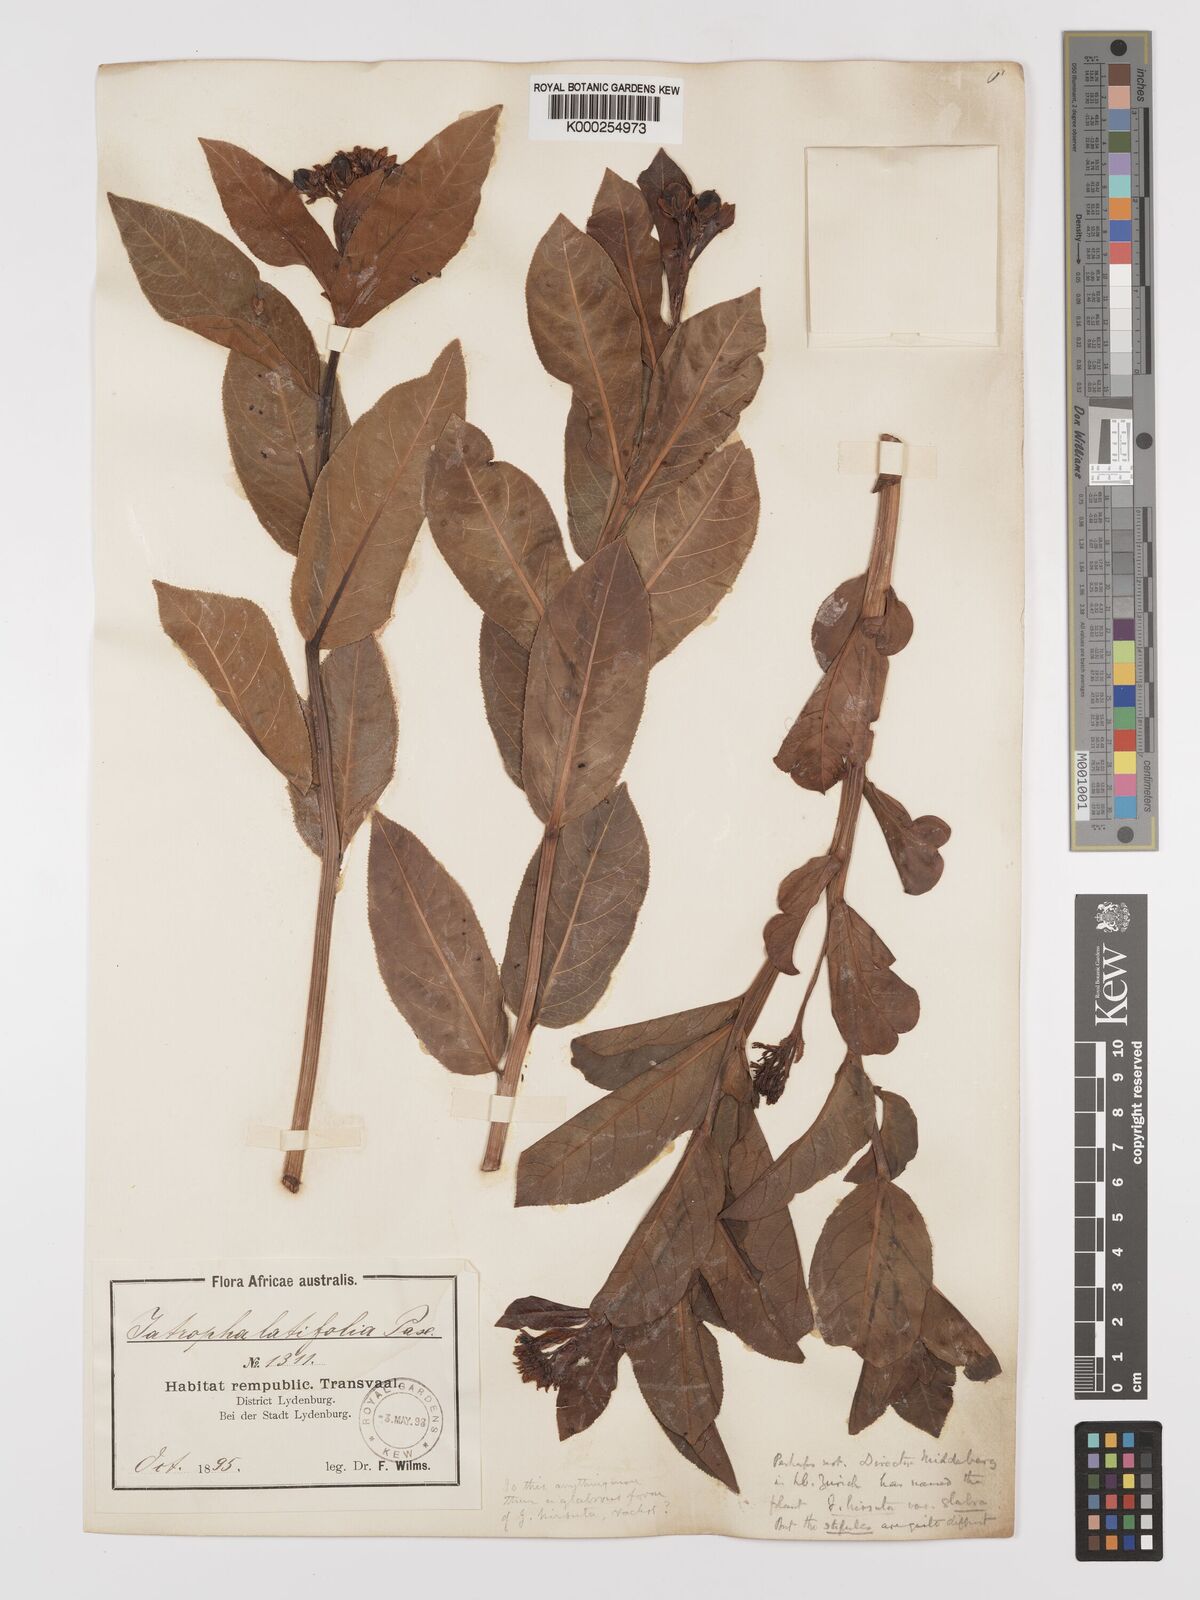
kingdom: Plantae
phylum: Tracheophyta
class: Magnoliopsida
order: Malpighiales
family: Euphorbiaceae
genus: Jatropha
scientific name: Jatropha latifolia
